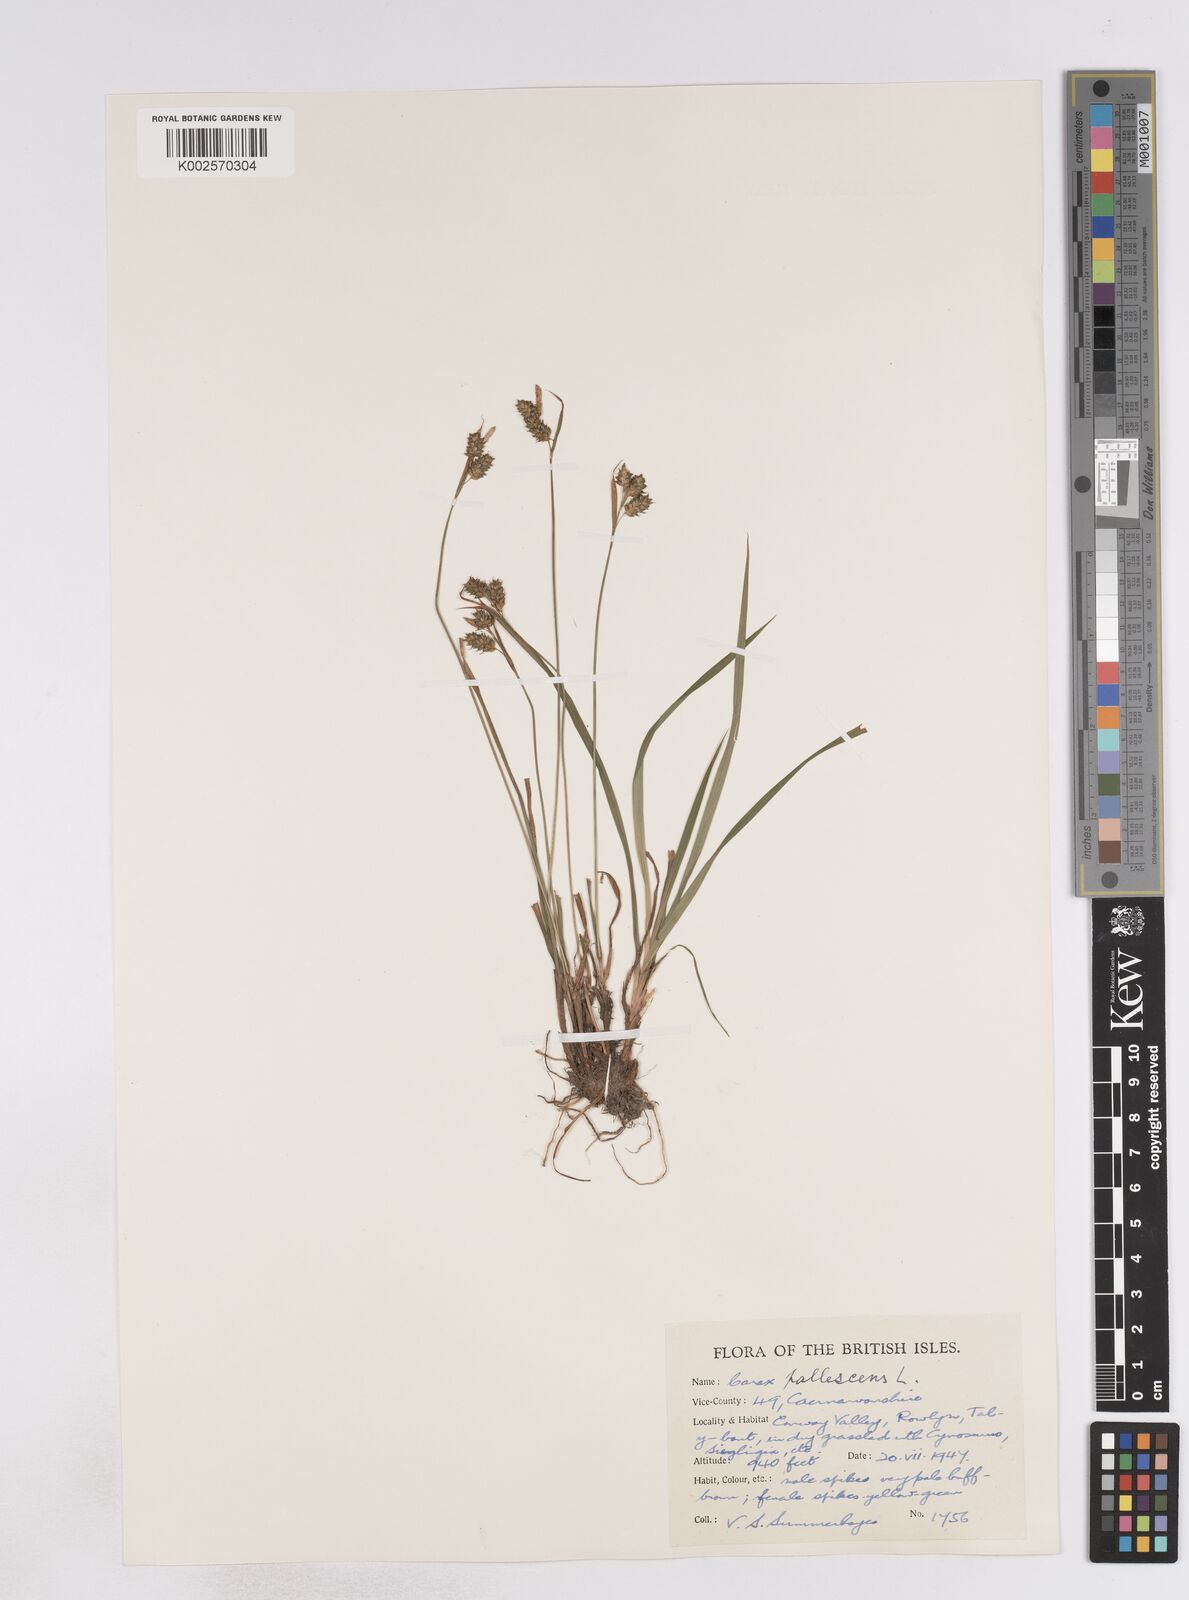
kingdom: Plantae
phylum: Tracheophyta
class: Liliopsida
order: Poales
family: Cyperaceae
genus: Carex
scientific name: Carex pallescens
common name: Pale sedge
